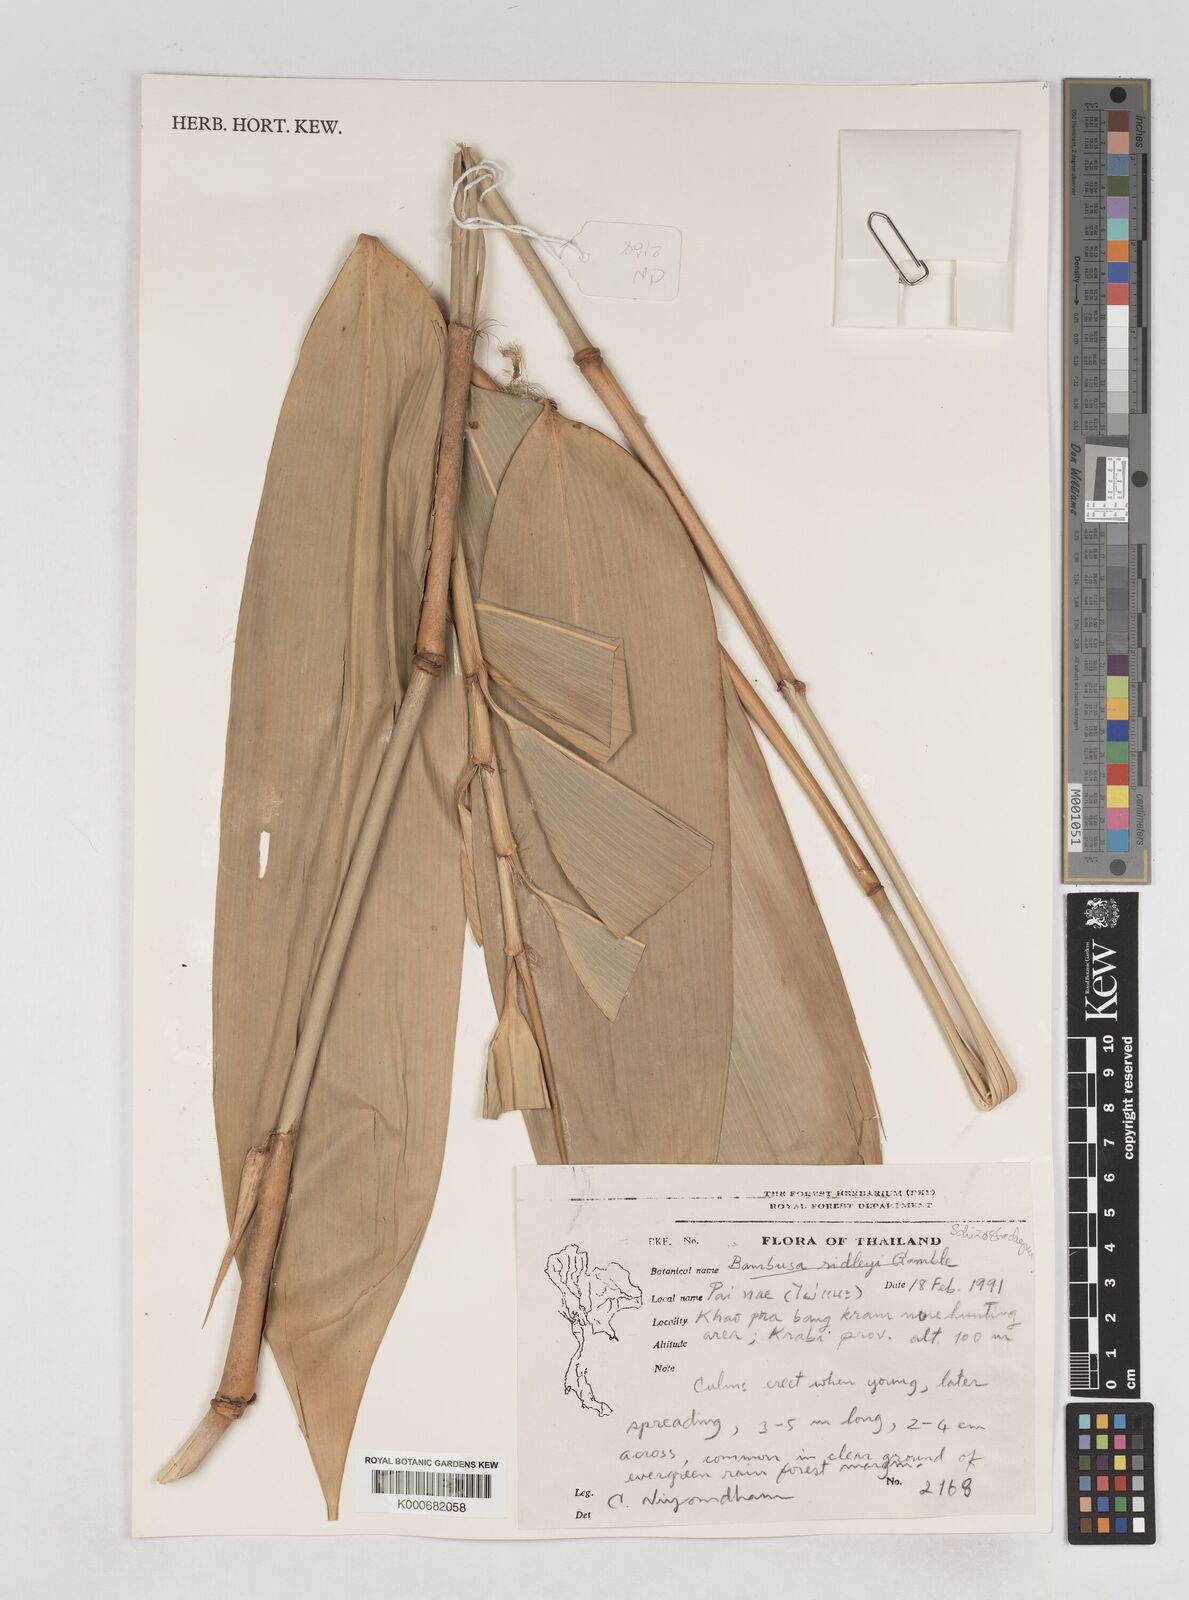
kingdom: Plantae
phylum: Tracheophyta
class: Liliopsida
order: Poales
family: Poaceae
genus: Schizostachyum
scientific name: Schizostachyum grande
